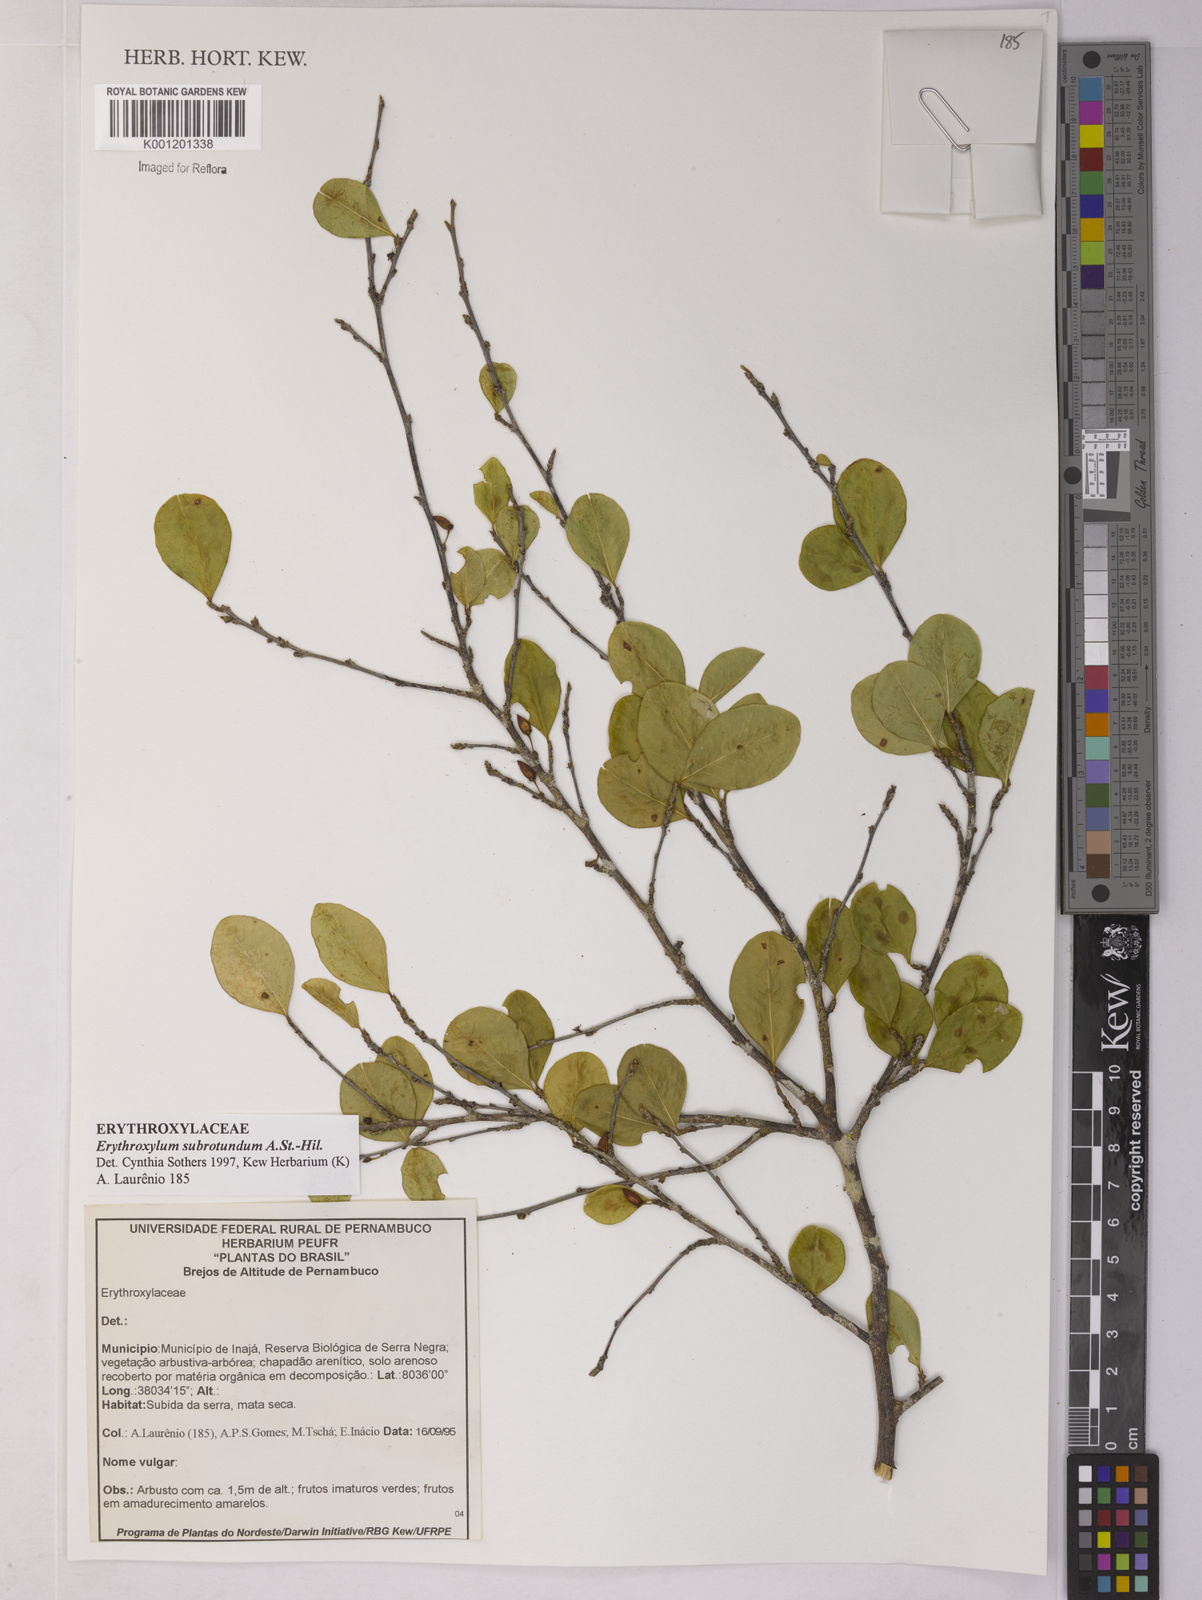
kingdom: Plantae
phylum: Tracheophyta
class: Magnoliopsida
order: Malpighiales
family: Erythroxylaceae
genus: Erythroxylum
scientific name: Erythroxylum subrotundum
